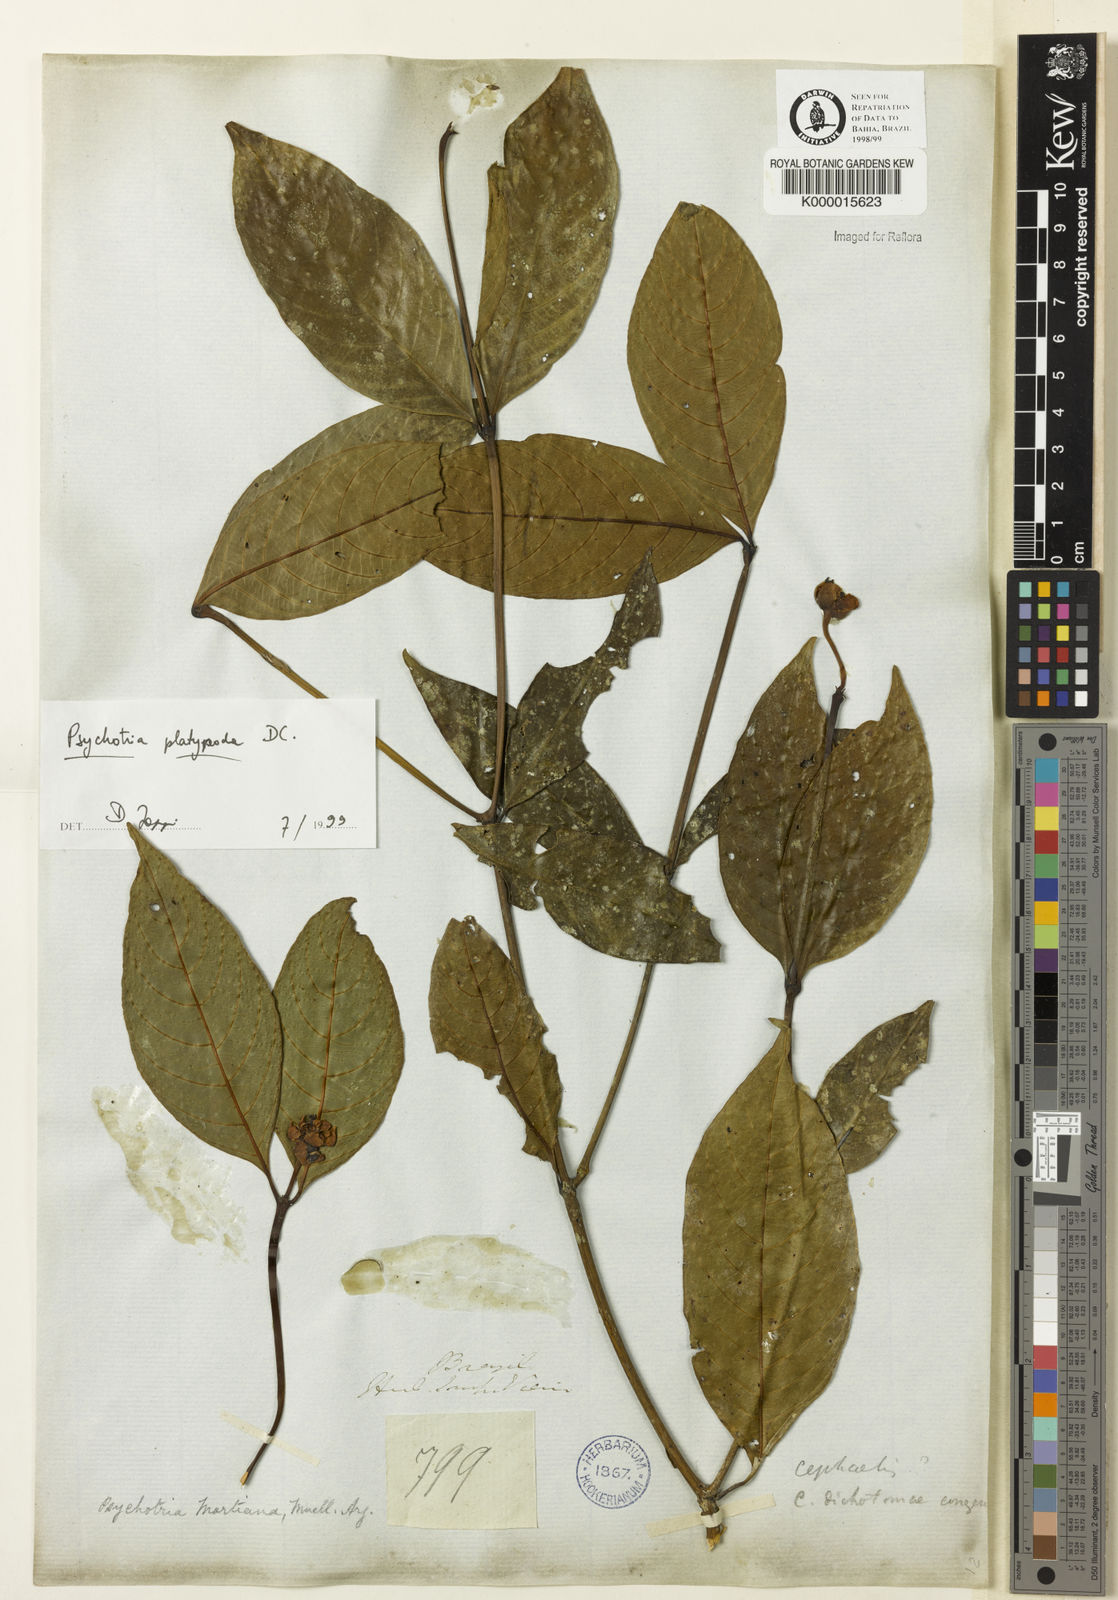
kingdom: Plantae
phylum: Tracheophyta
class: Magnoliopsida
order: Gentianales
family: Rubiaceae
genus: Palicourea
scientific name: Palicourea dichotoma
